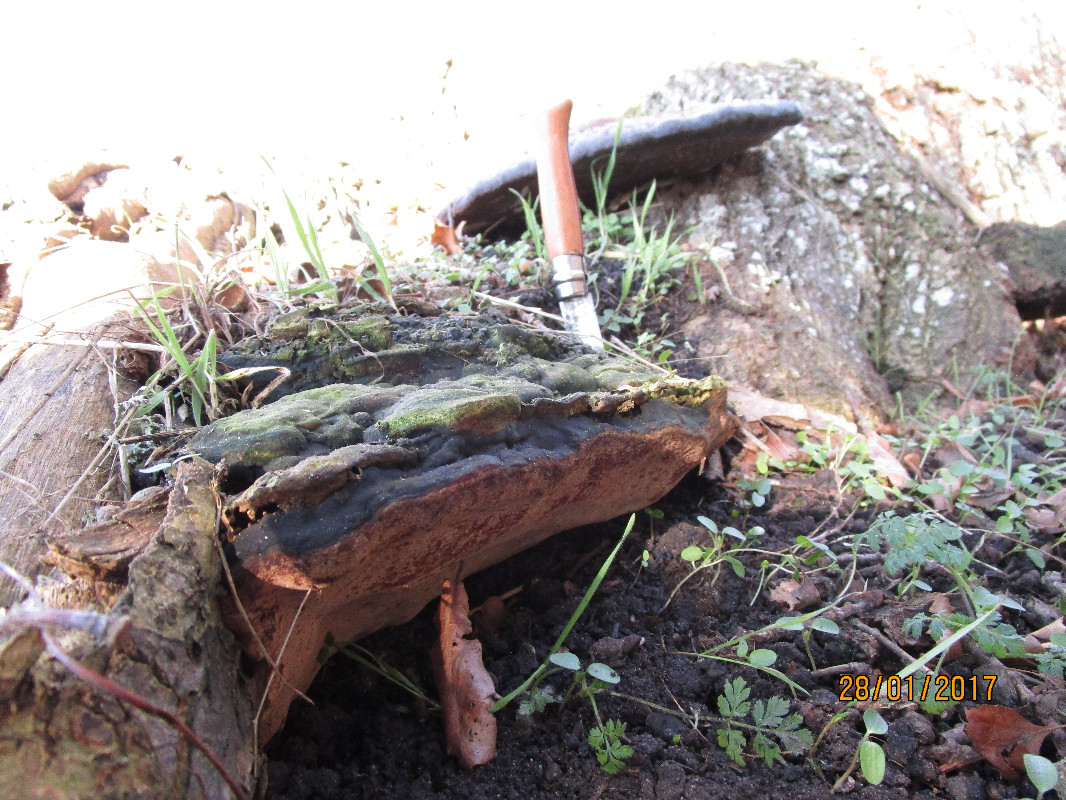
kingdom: Fungi
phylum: Basidiomycota
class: Agaricomycetes
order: Polyporales
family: Polyporaceae
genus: Vanderbylia
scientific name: Vanderbylia fraxinea
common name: stor kanelporesvamp
